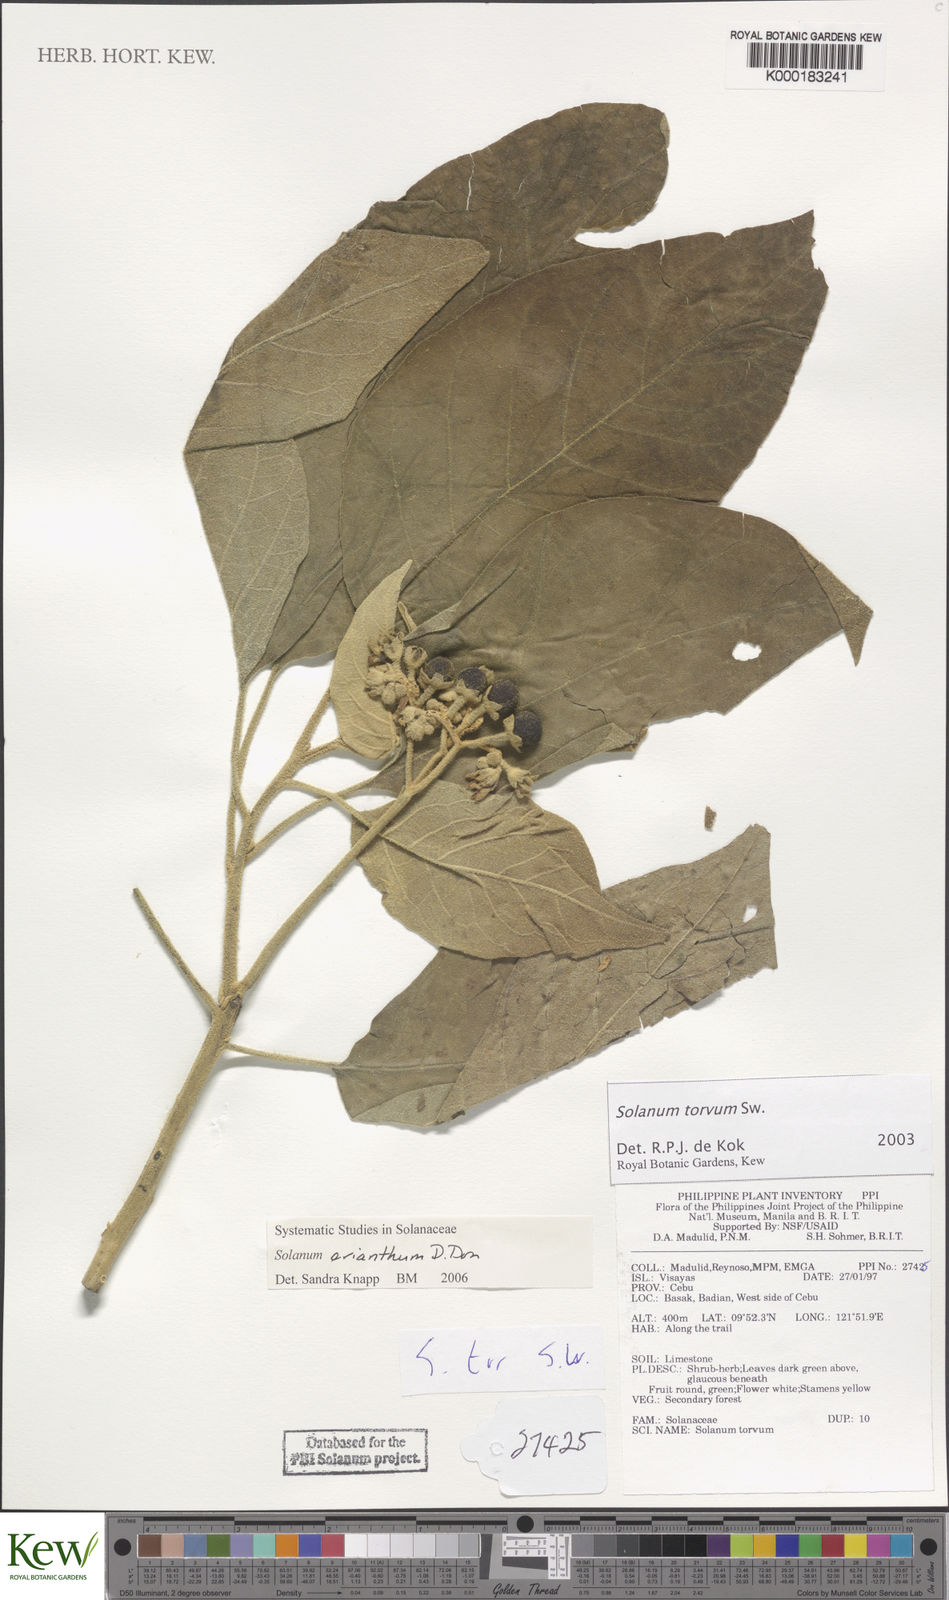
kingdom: Plantae
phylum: Tracheophyta
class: Magnoliopsida
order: Solanales
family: Solanaceae
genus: Solanum
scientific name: Solanum torvum
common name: Turkey berry
